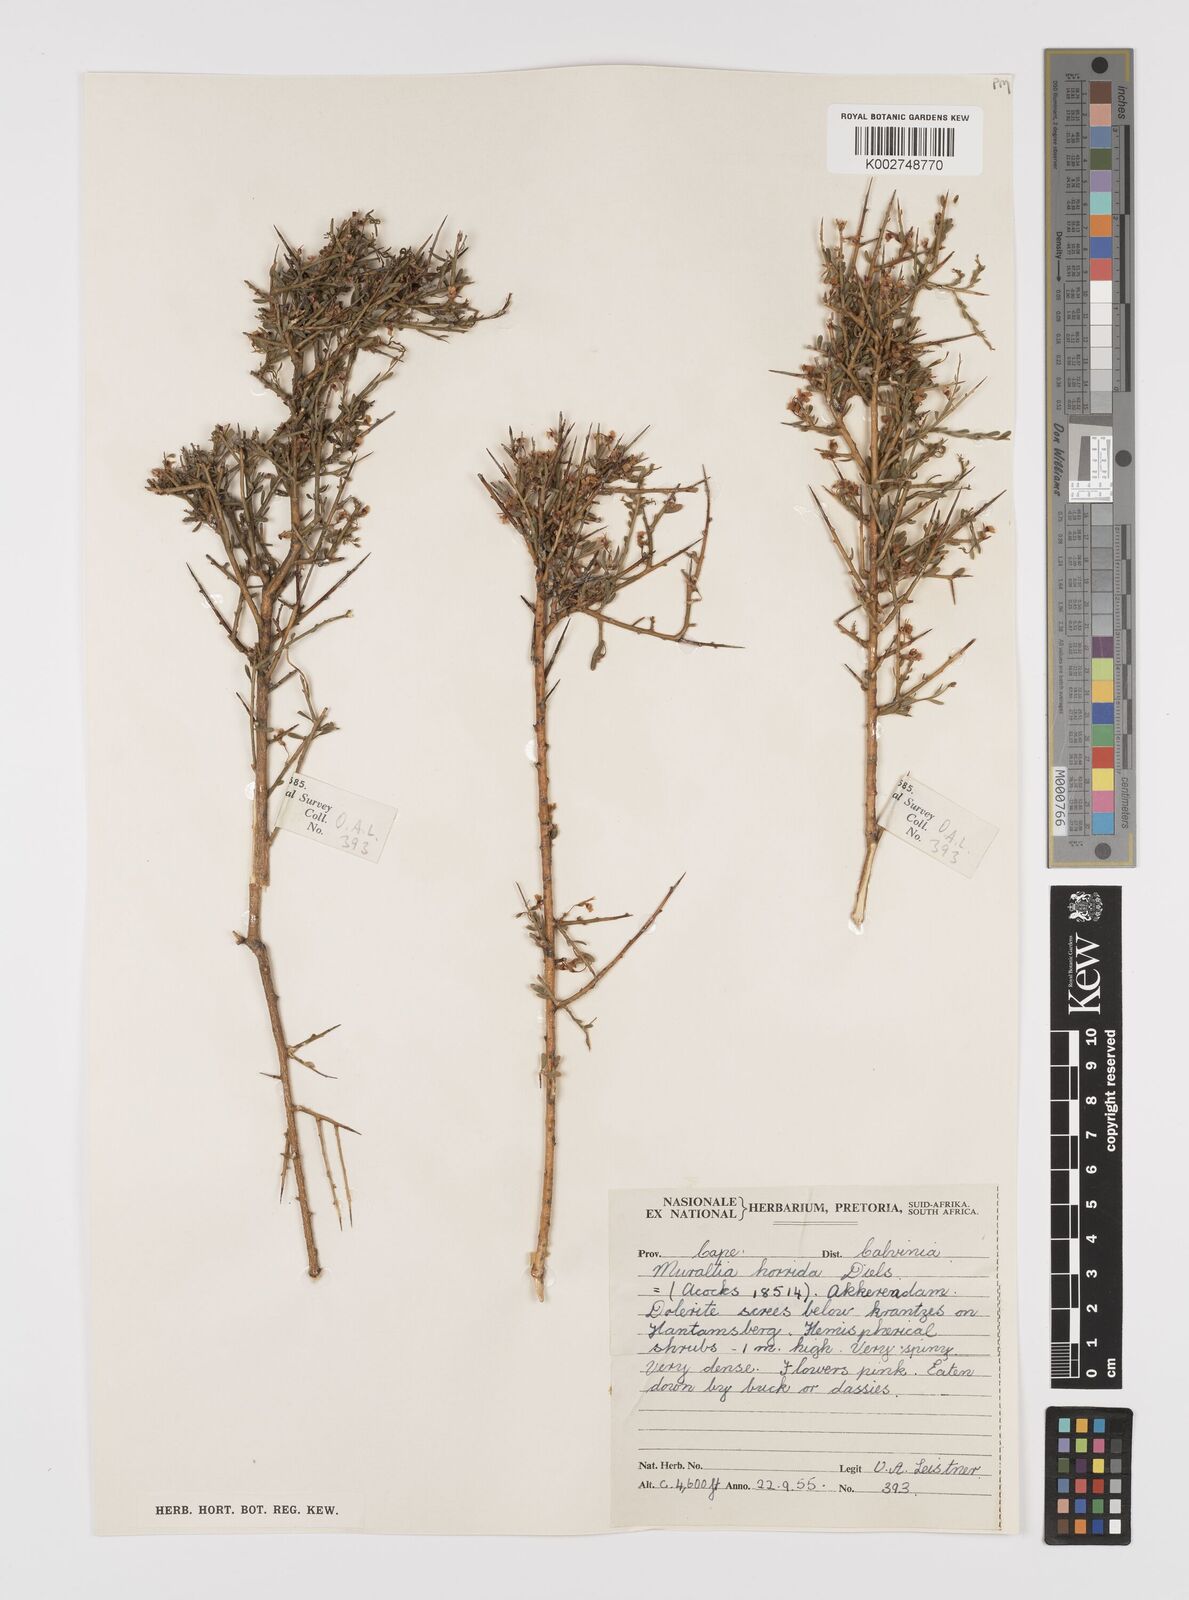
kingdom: Plantae
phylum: Tracheophyta
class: Magnoliopsida
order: Fabales
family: Polygalaceae
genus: Muraltia
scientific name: Muraltia horrida
